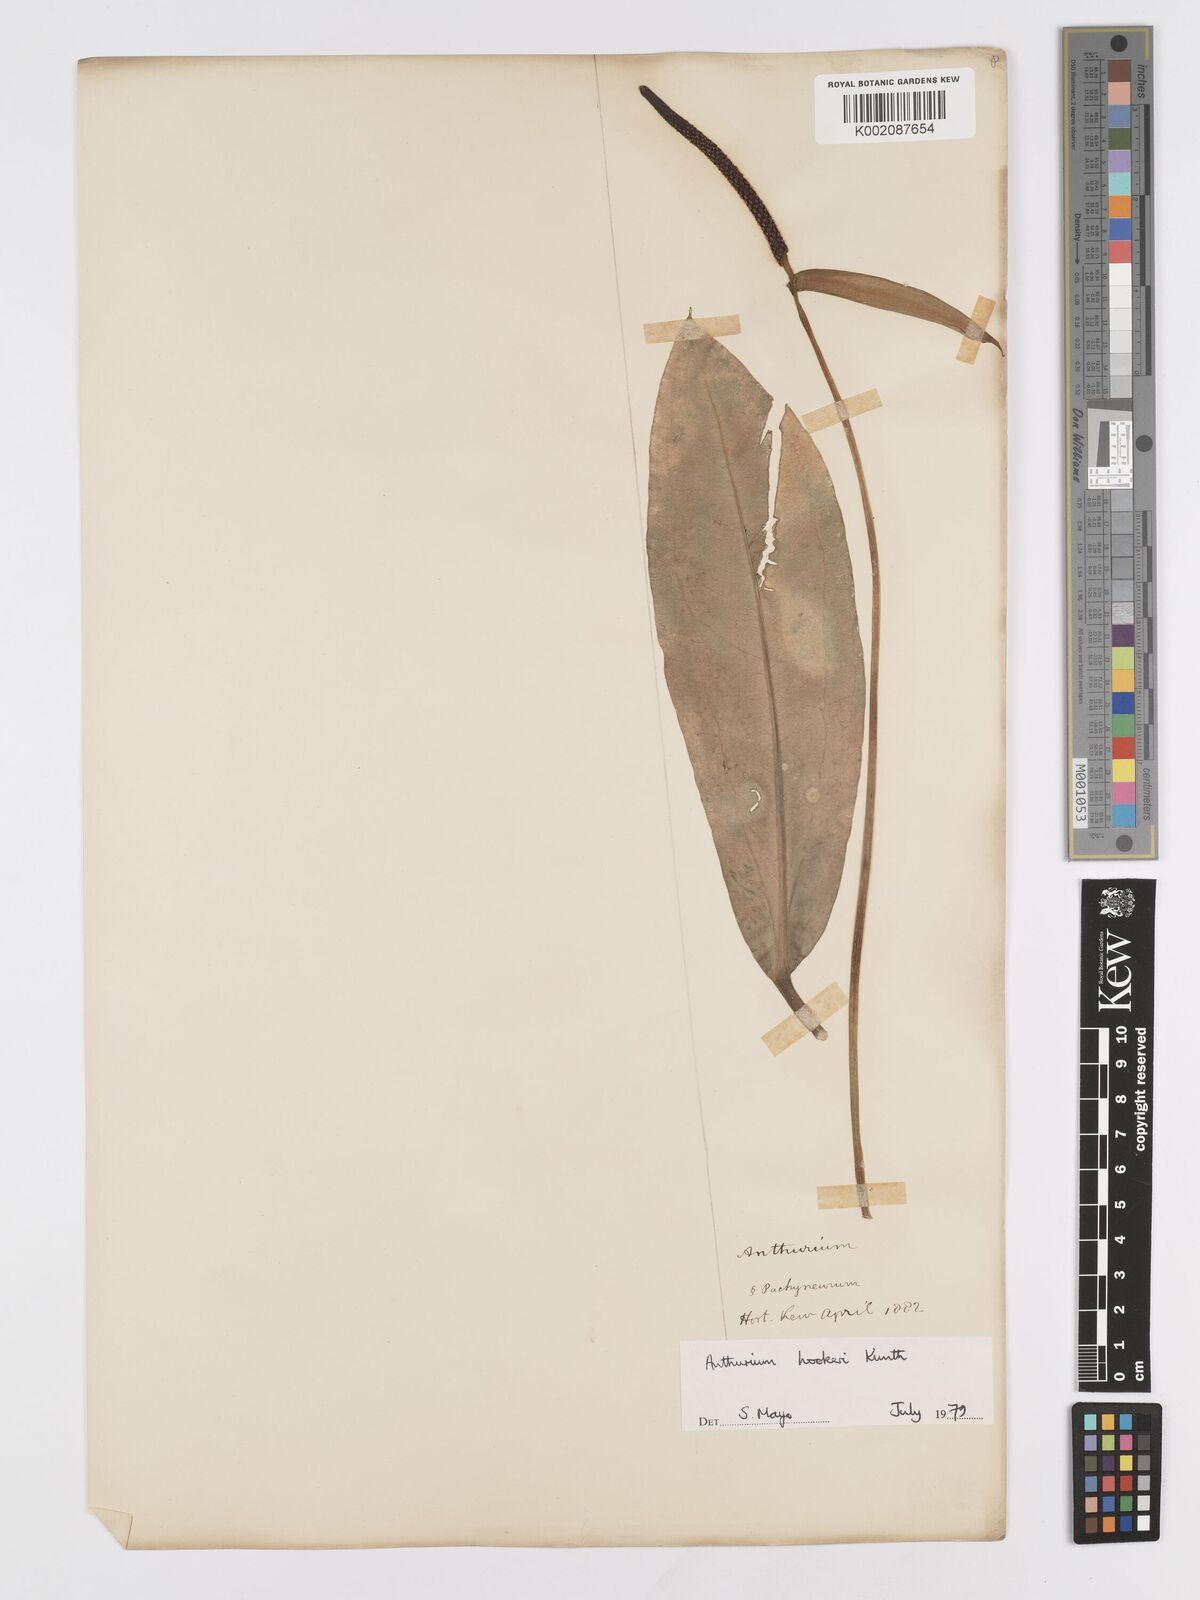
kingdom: Plantae
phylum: Tracheophyta
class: Liliopsida
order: Alismatales
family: Araceae
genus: Anthurium
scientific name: Anthurium hookeri
